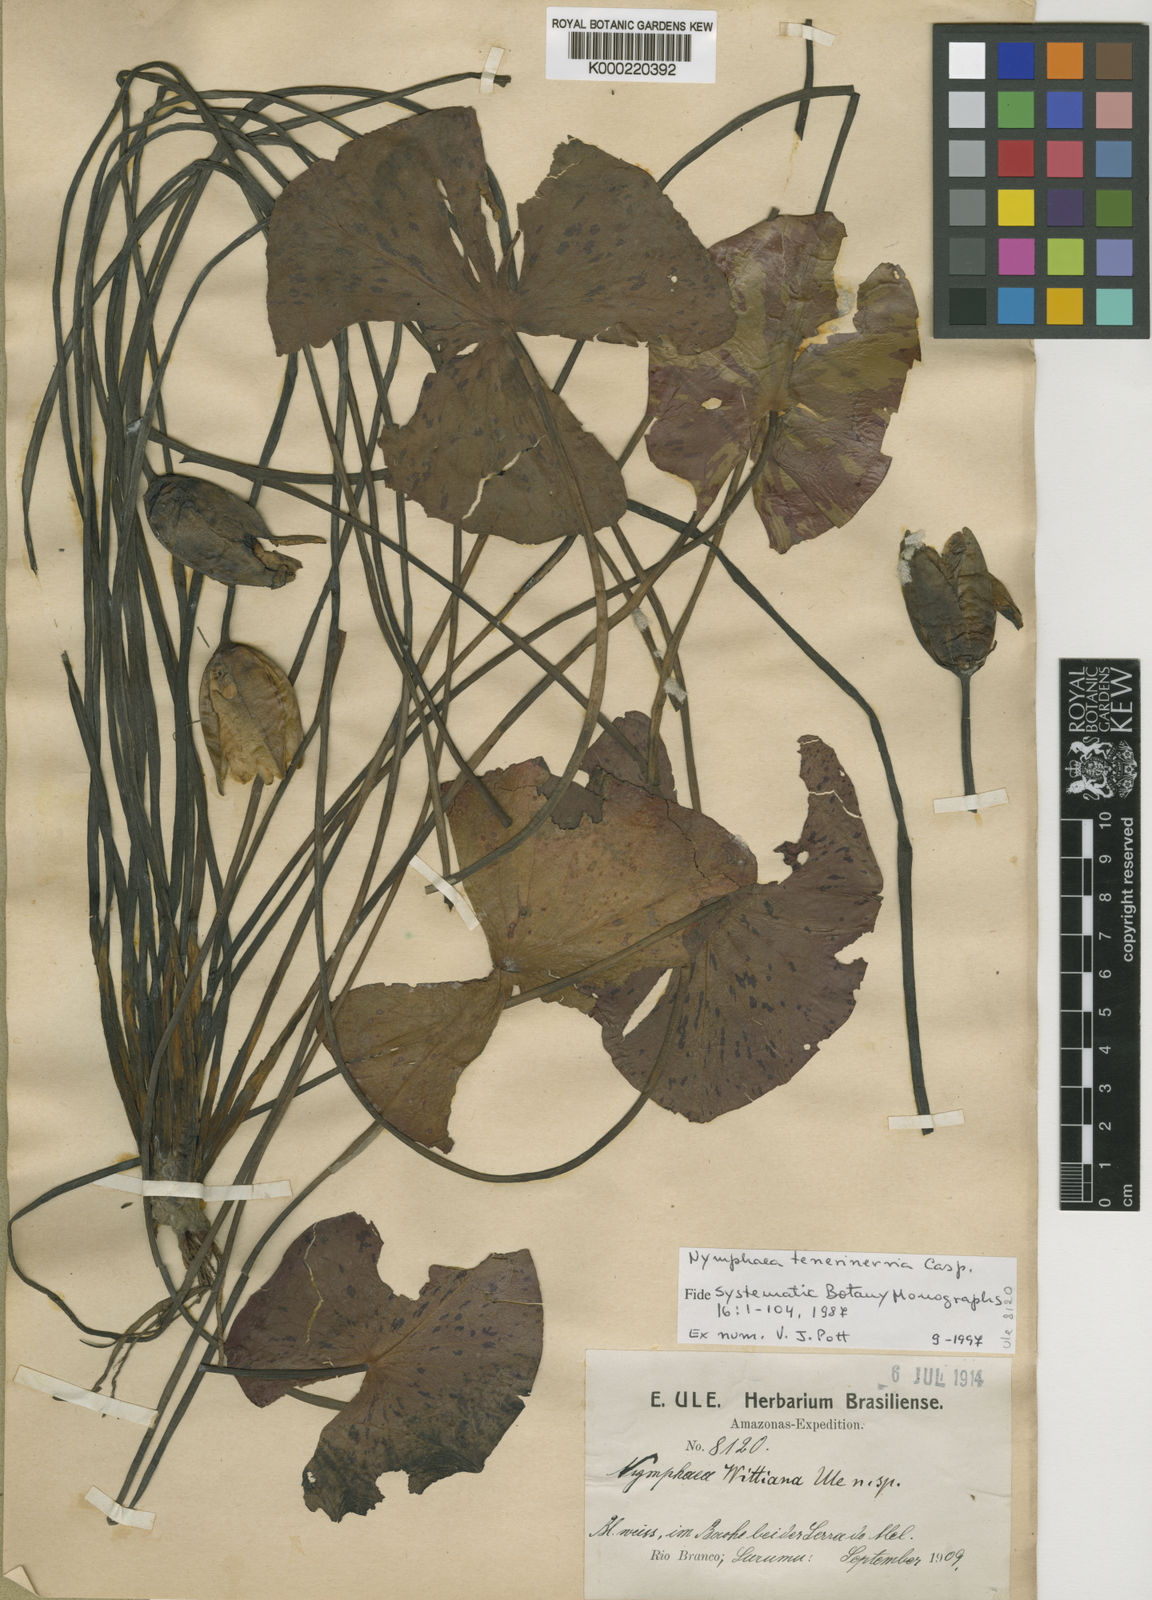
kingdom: Plantae
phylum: Tracheophyta
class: Magnoliopsida
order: Nymphaeales
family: Nymphaeaceae
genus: Nymphaea
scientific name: Nymphaea tenerinervia
